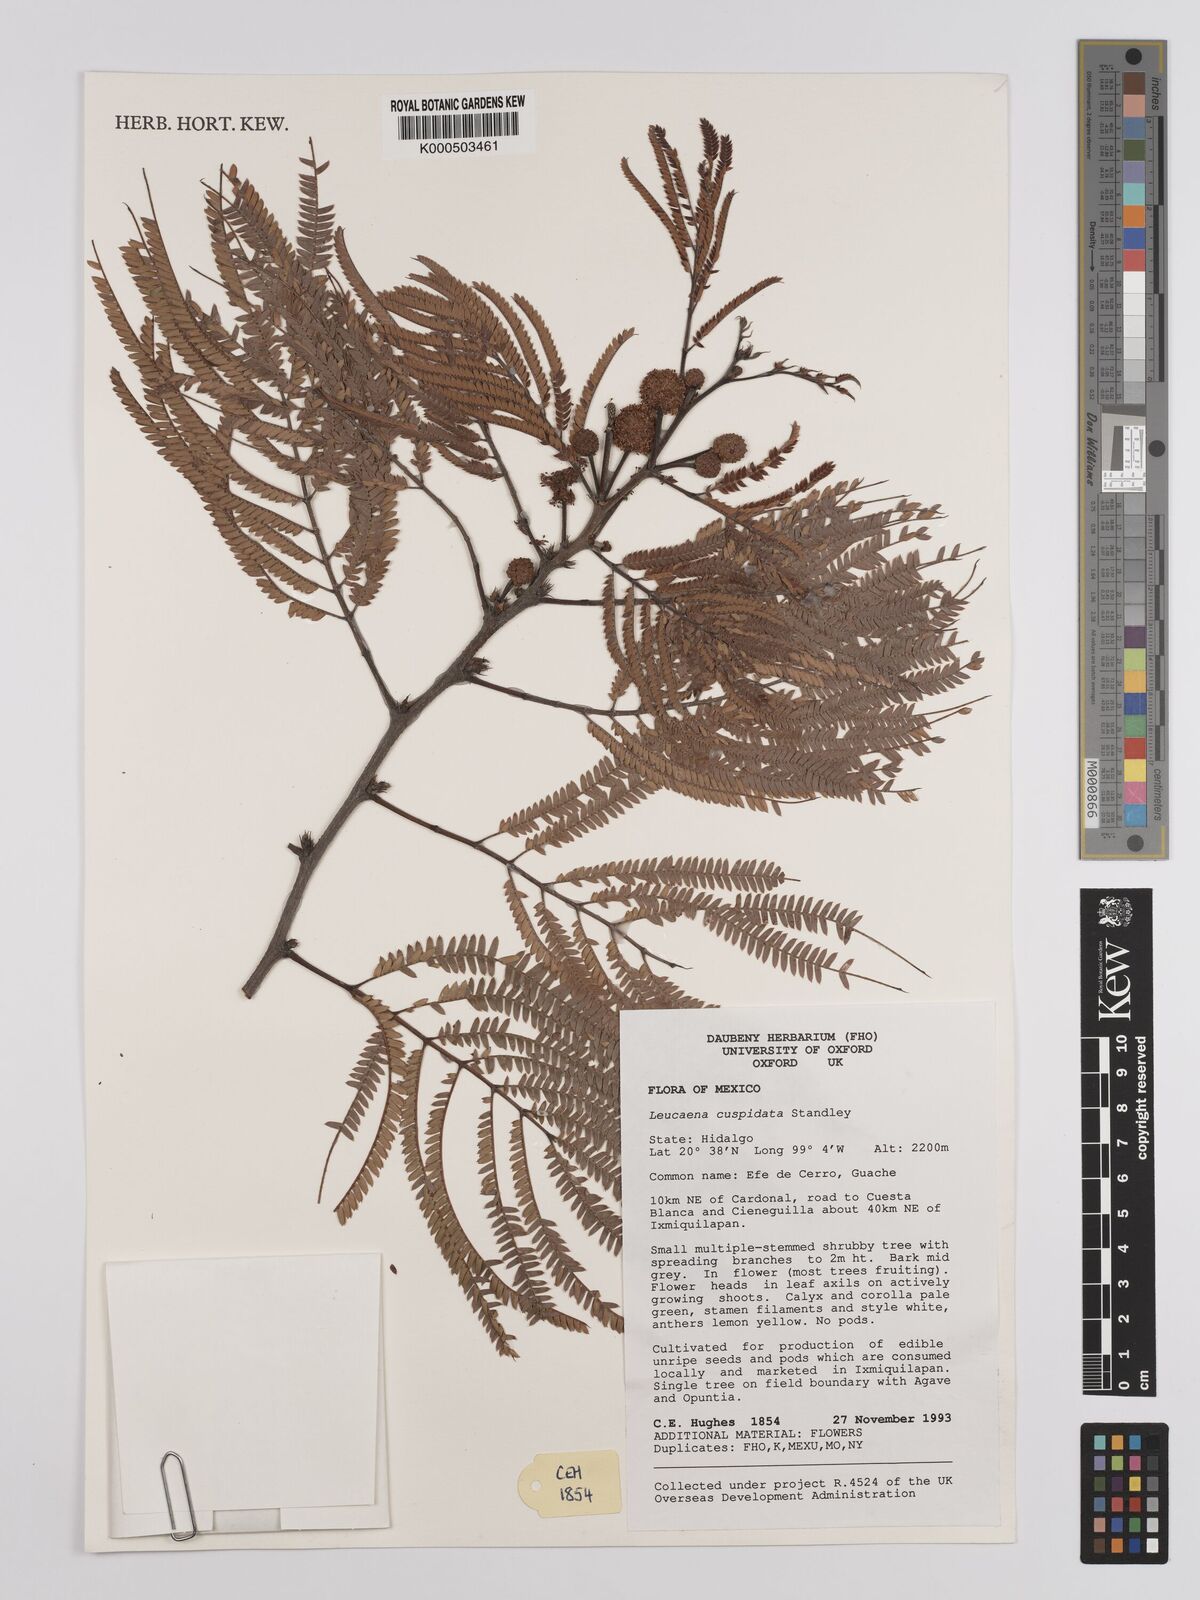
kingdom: Plantae
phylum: Tracheophyta
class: Magnoliopsida
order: Fabales
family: Fabaceae
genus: Leucaena
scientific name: Leucaena cuspidata
